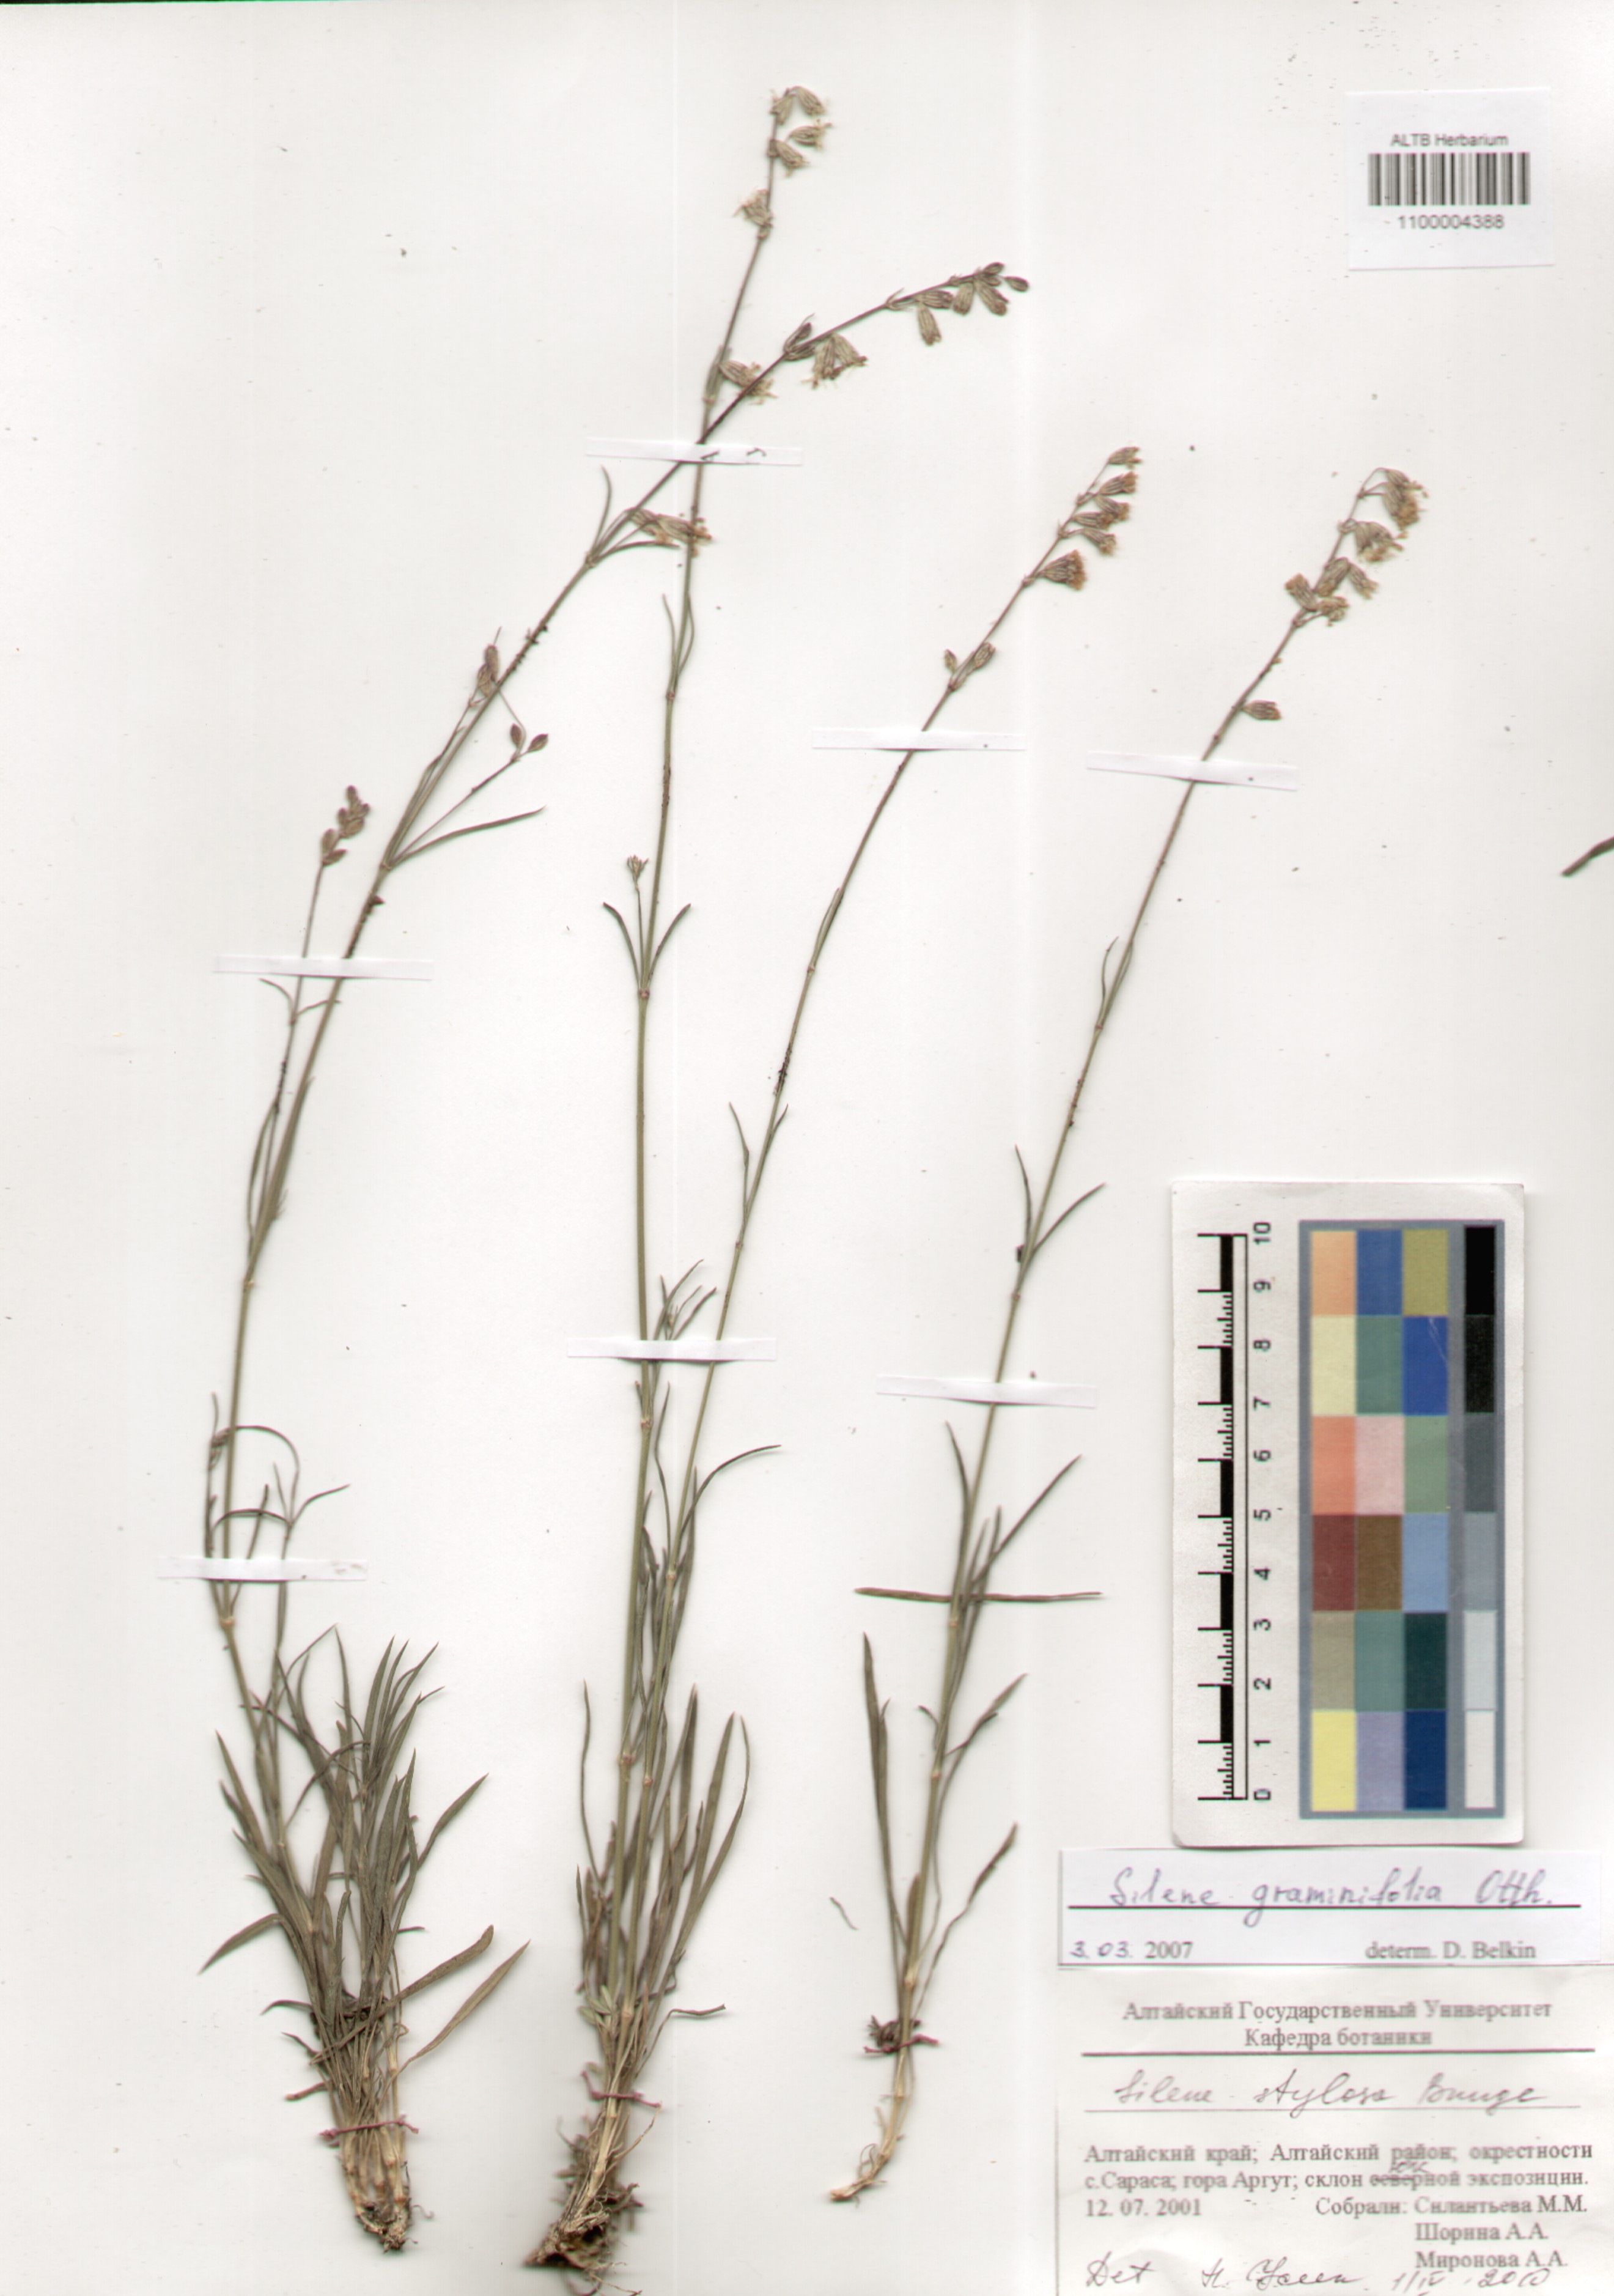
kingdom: Plantae
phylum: Tracheophyta
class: Magnoliopsida
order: Caryophyllales
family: Caryophyllaceae
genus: Silene
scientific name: Silene graminifolia
